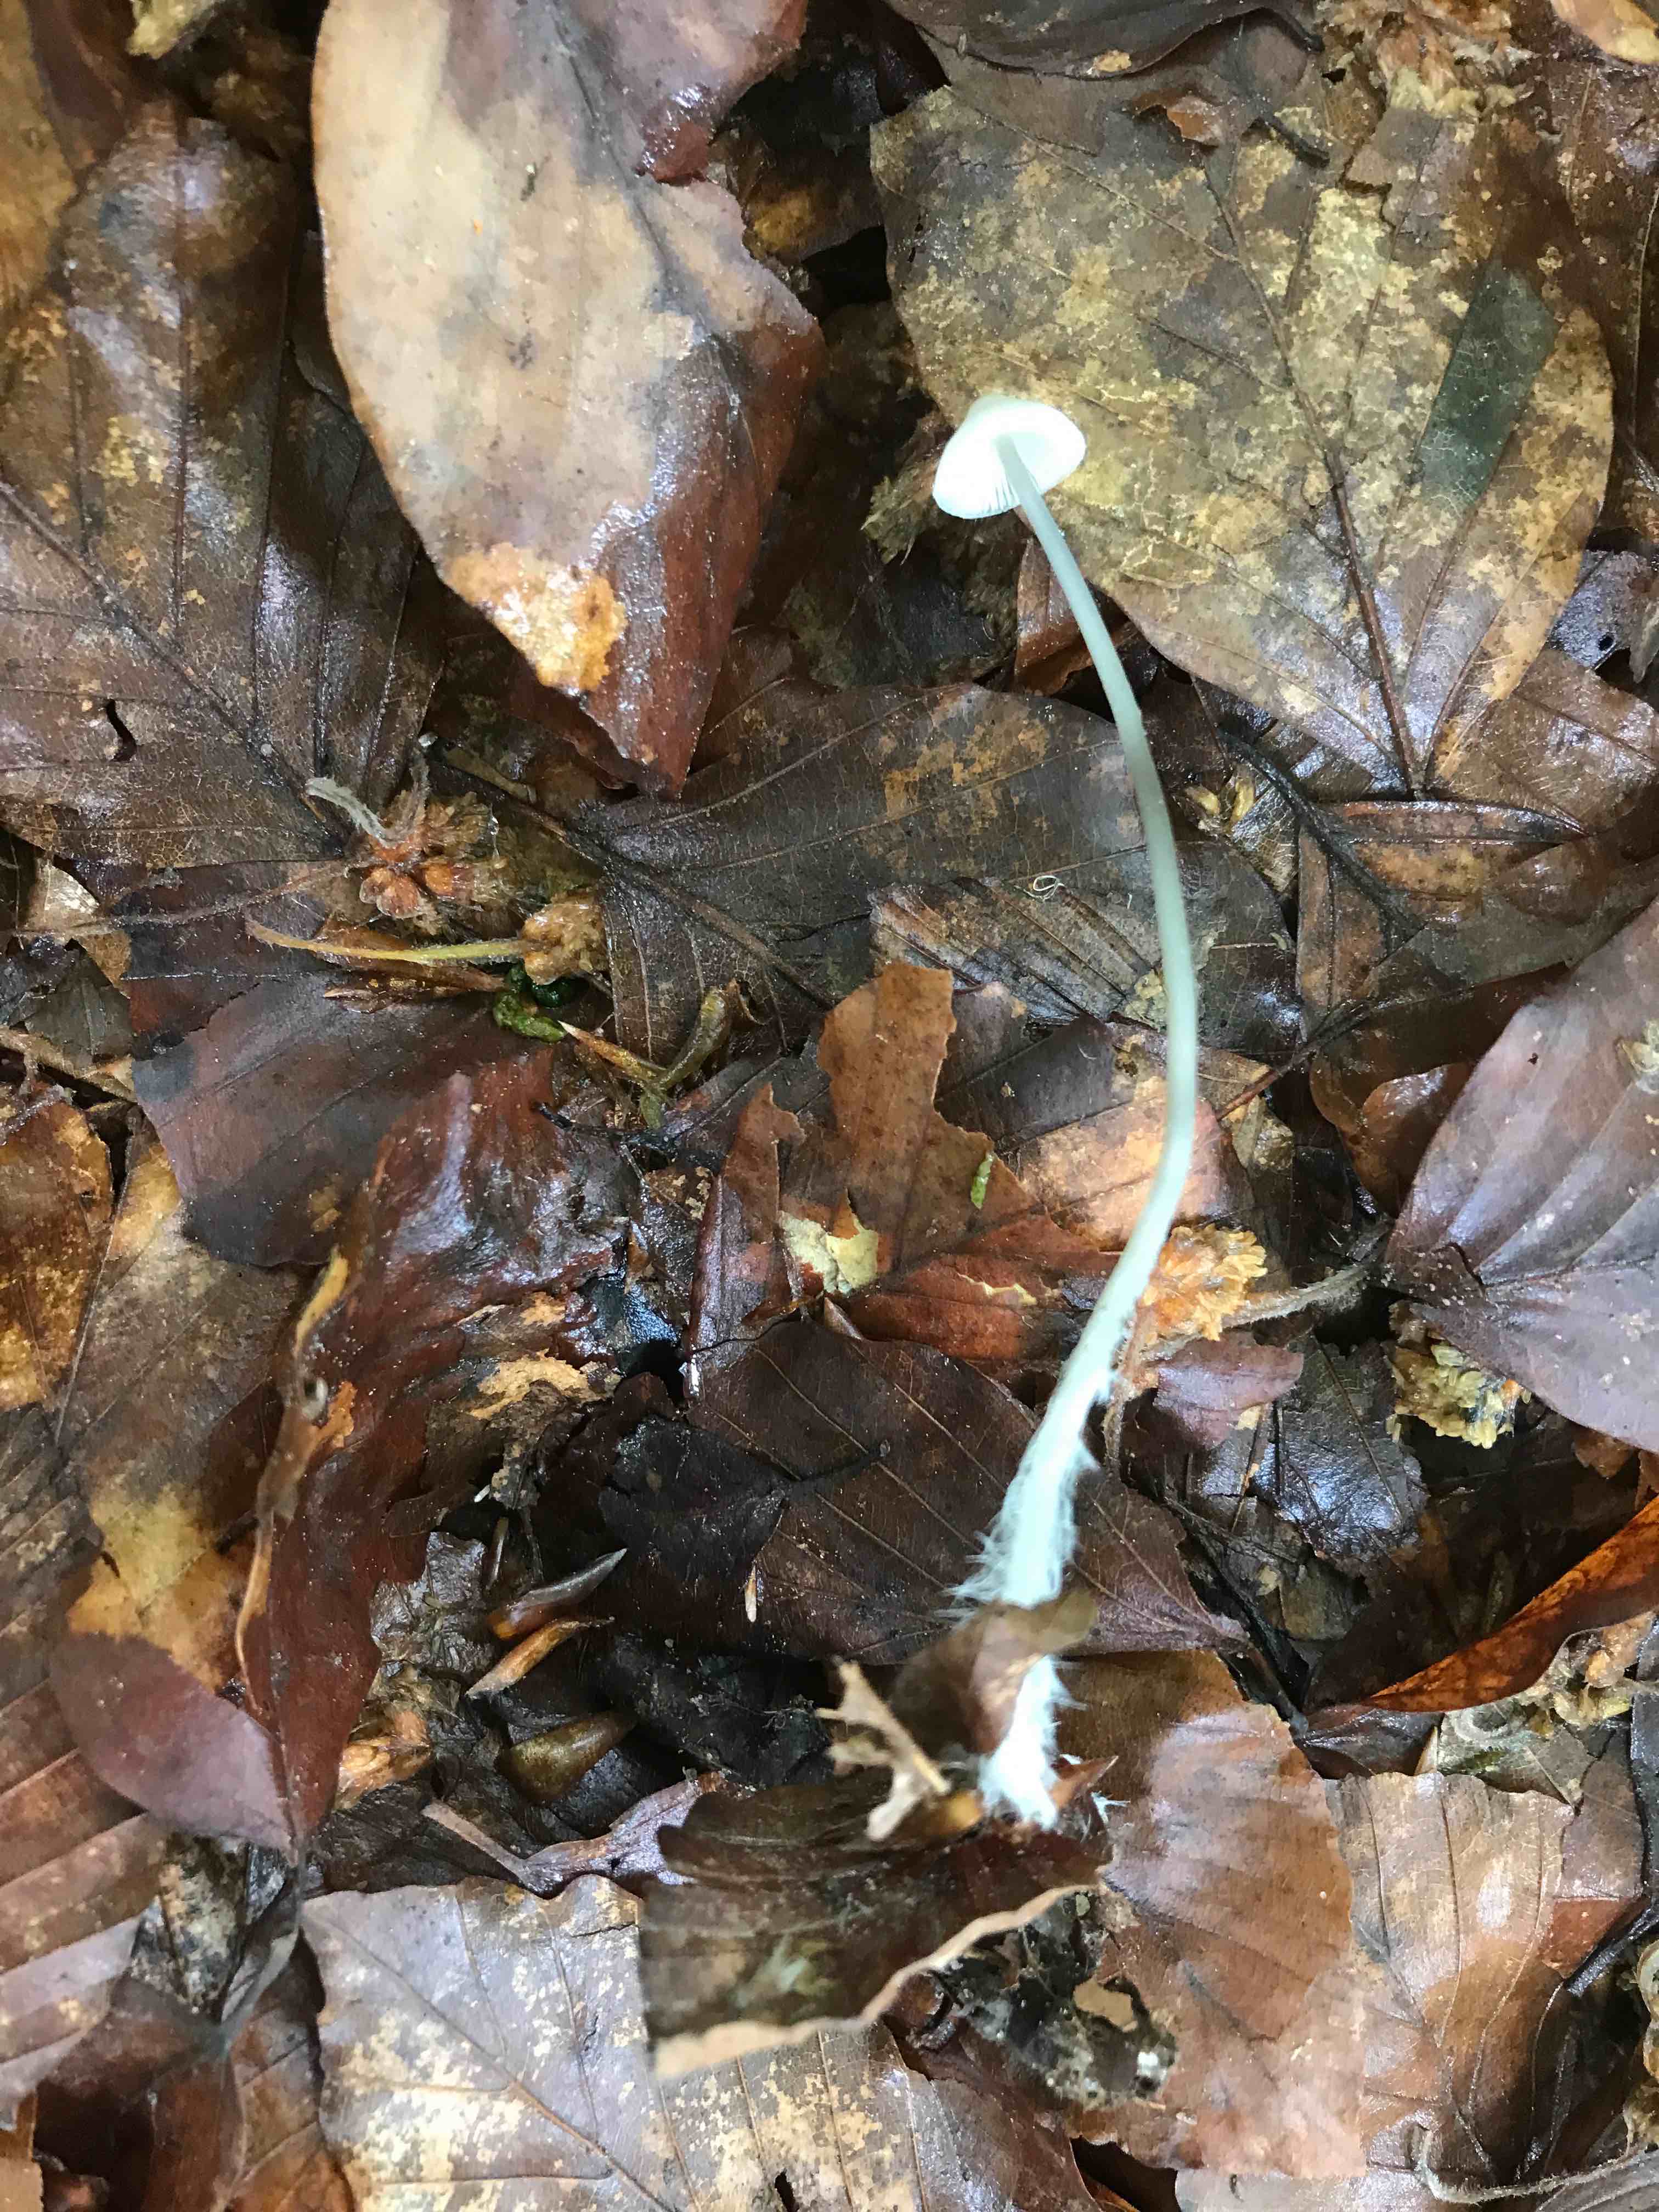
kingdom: Fungi
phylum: Basidiomycota
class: Agaricomycetes
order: Agaricales
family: Mycenaceae
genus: Mycena
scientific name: Mycena vitilis
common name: blankstokket huesvamp
